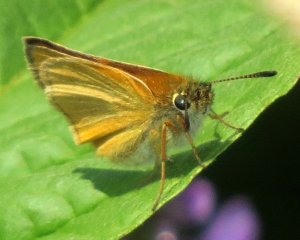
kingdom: Animalia
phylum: Arthropoda
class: Insecta
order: Lepidoptera
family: Hesperiidae
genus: Thymelicus
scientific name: Thymelicus lineola
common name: European Skipper
